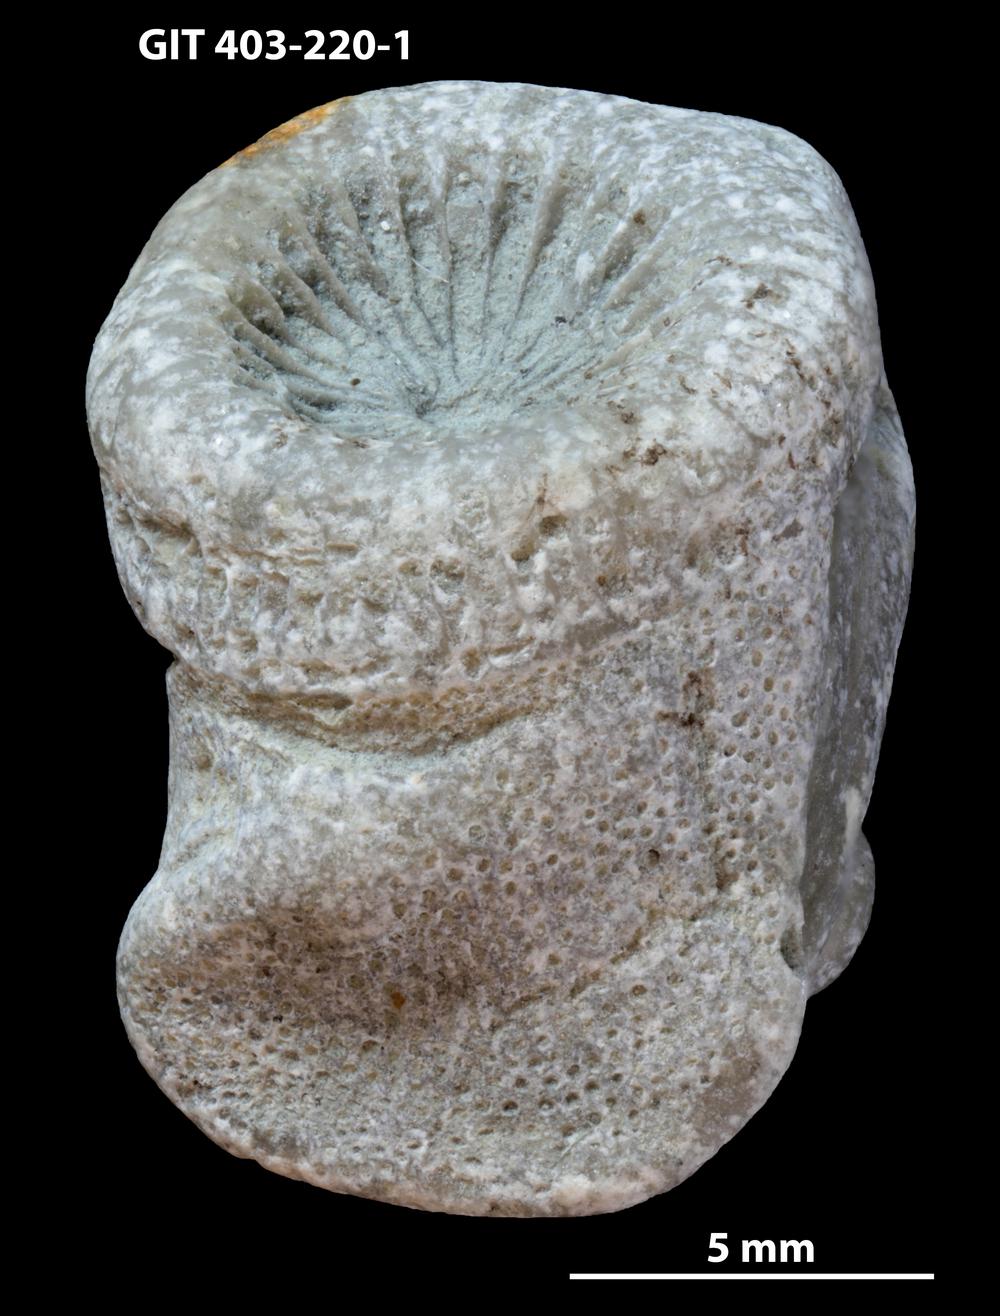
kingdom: Animalia
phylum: Bryozoa
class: Stenolaemata
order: Cystoporida
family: Fistuliporidae
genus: Fistulipora
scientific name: Fistulipora przhidolensis
